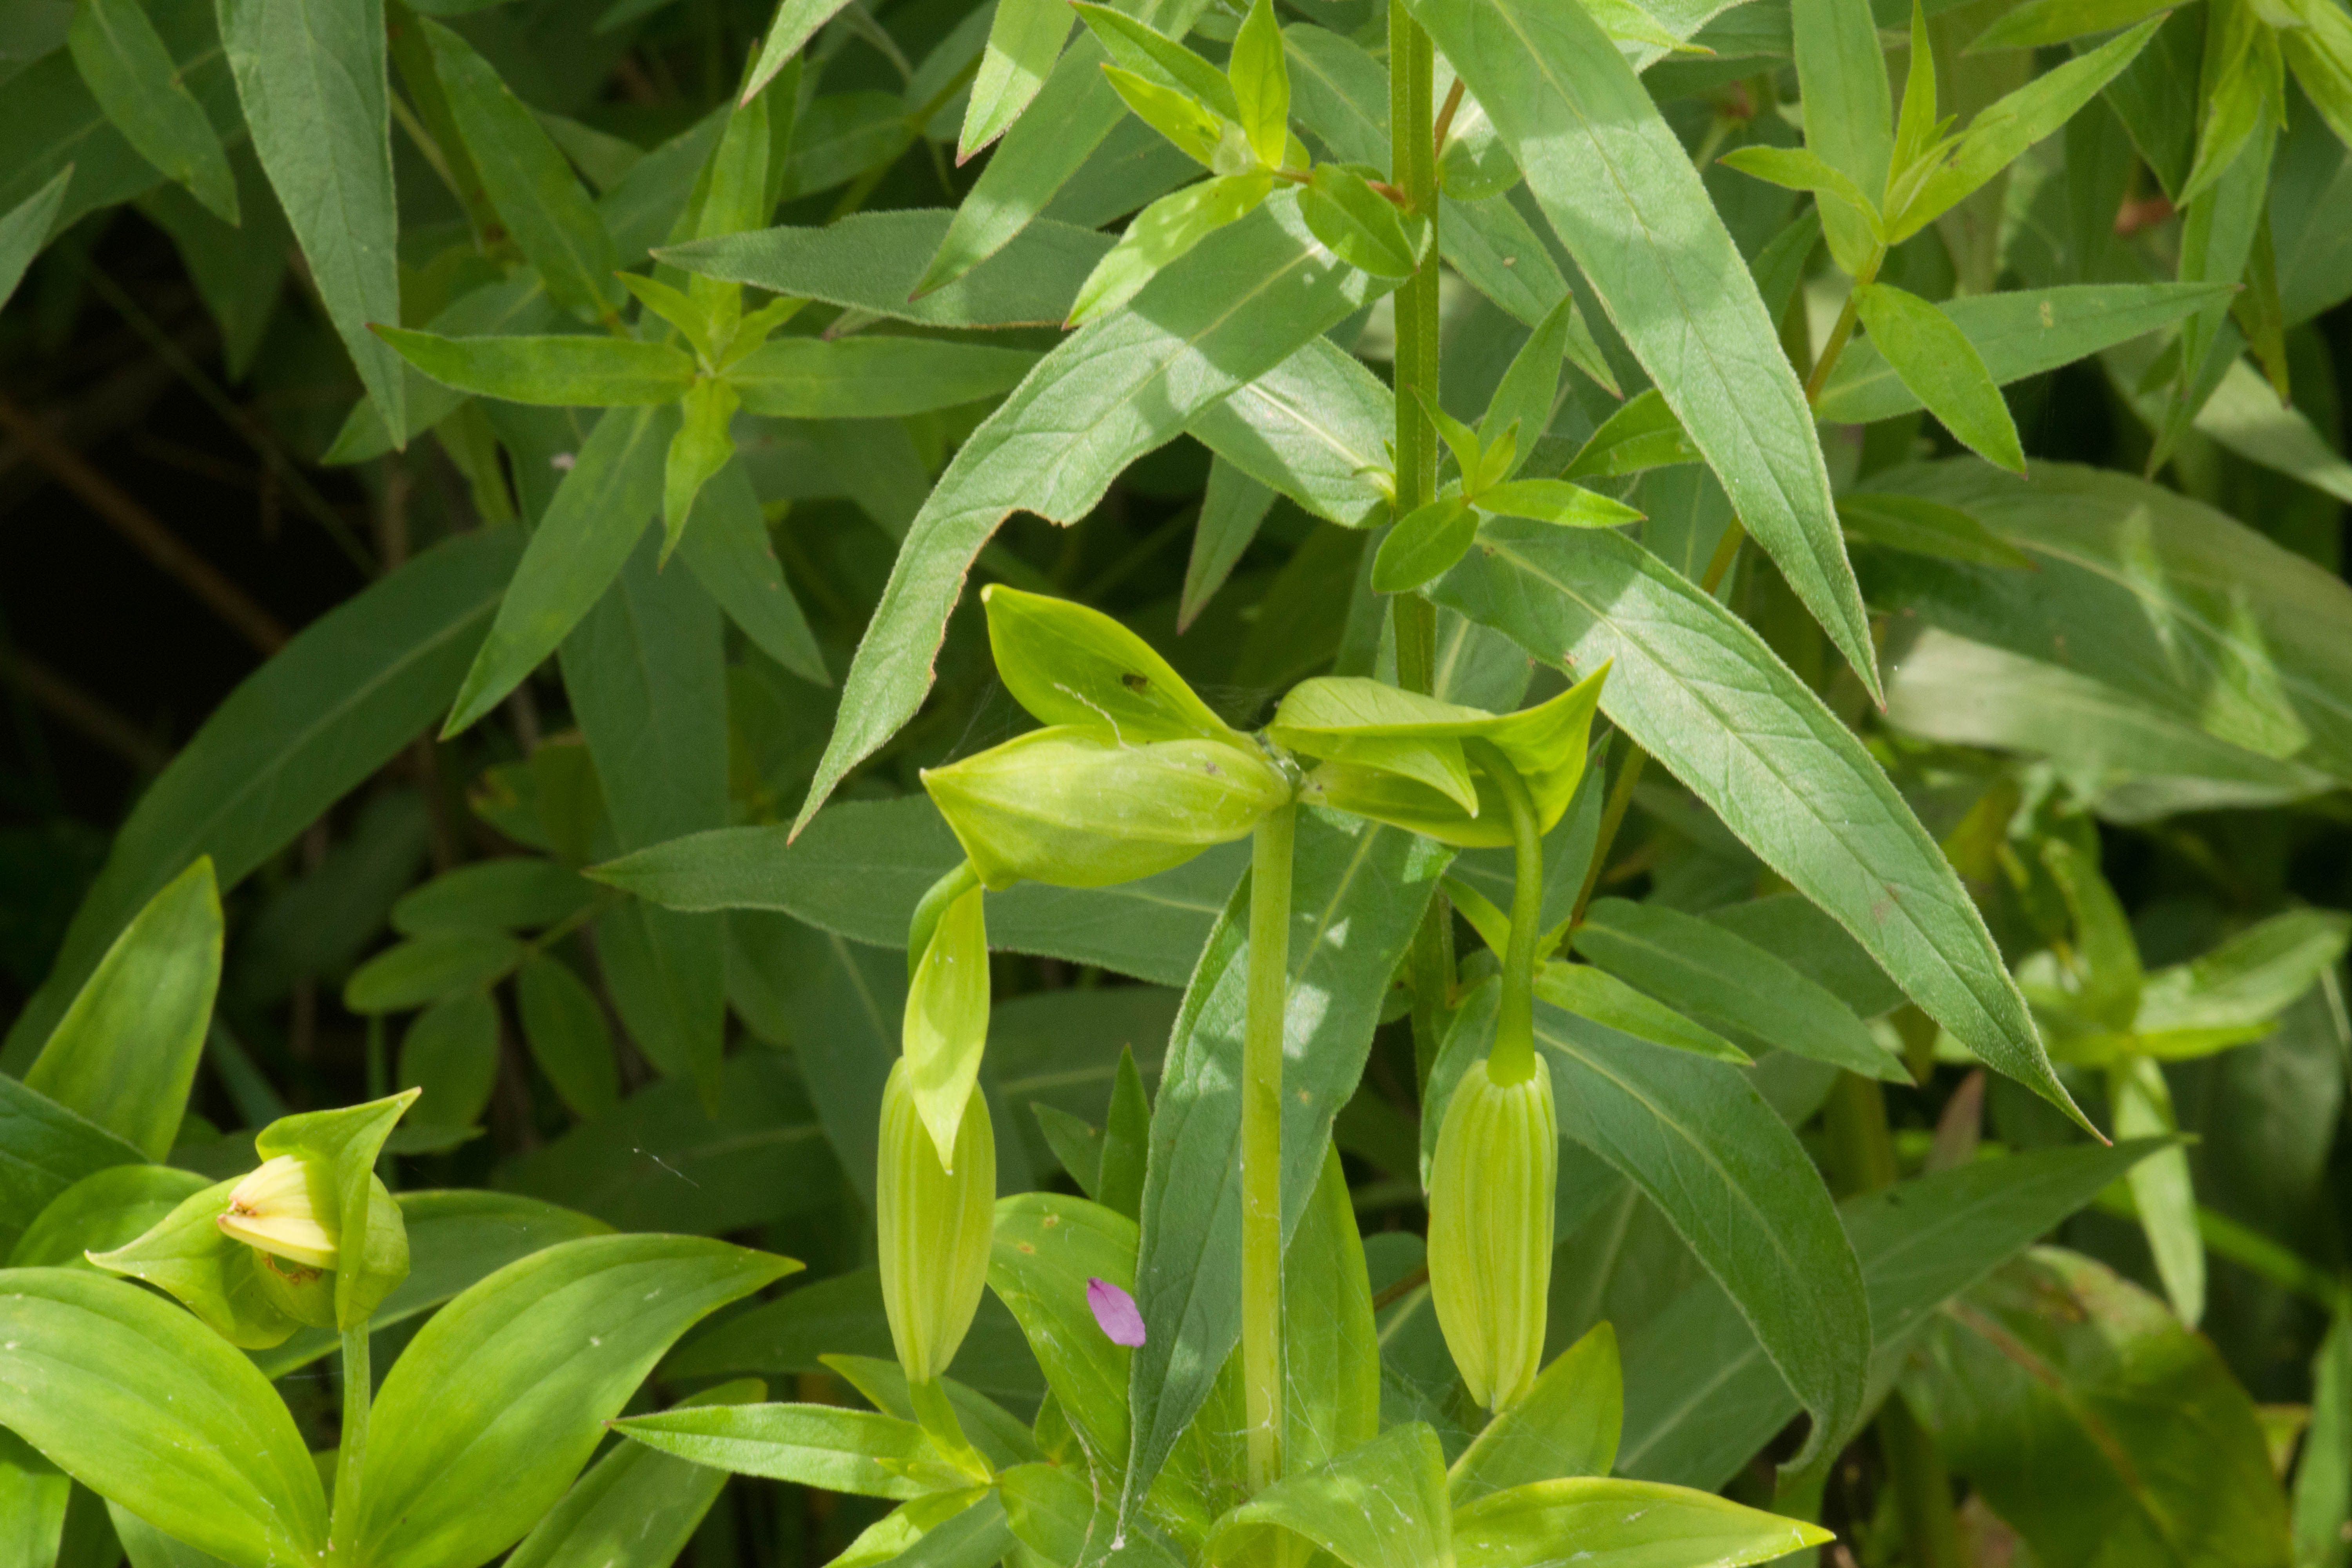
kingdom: Plantae
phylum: Tracheophyta
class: Liliopsida
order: Liliales
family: Liliaceae
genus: Lilium
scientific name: Lilium
